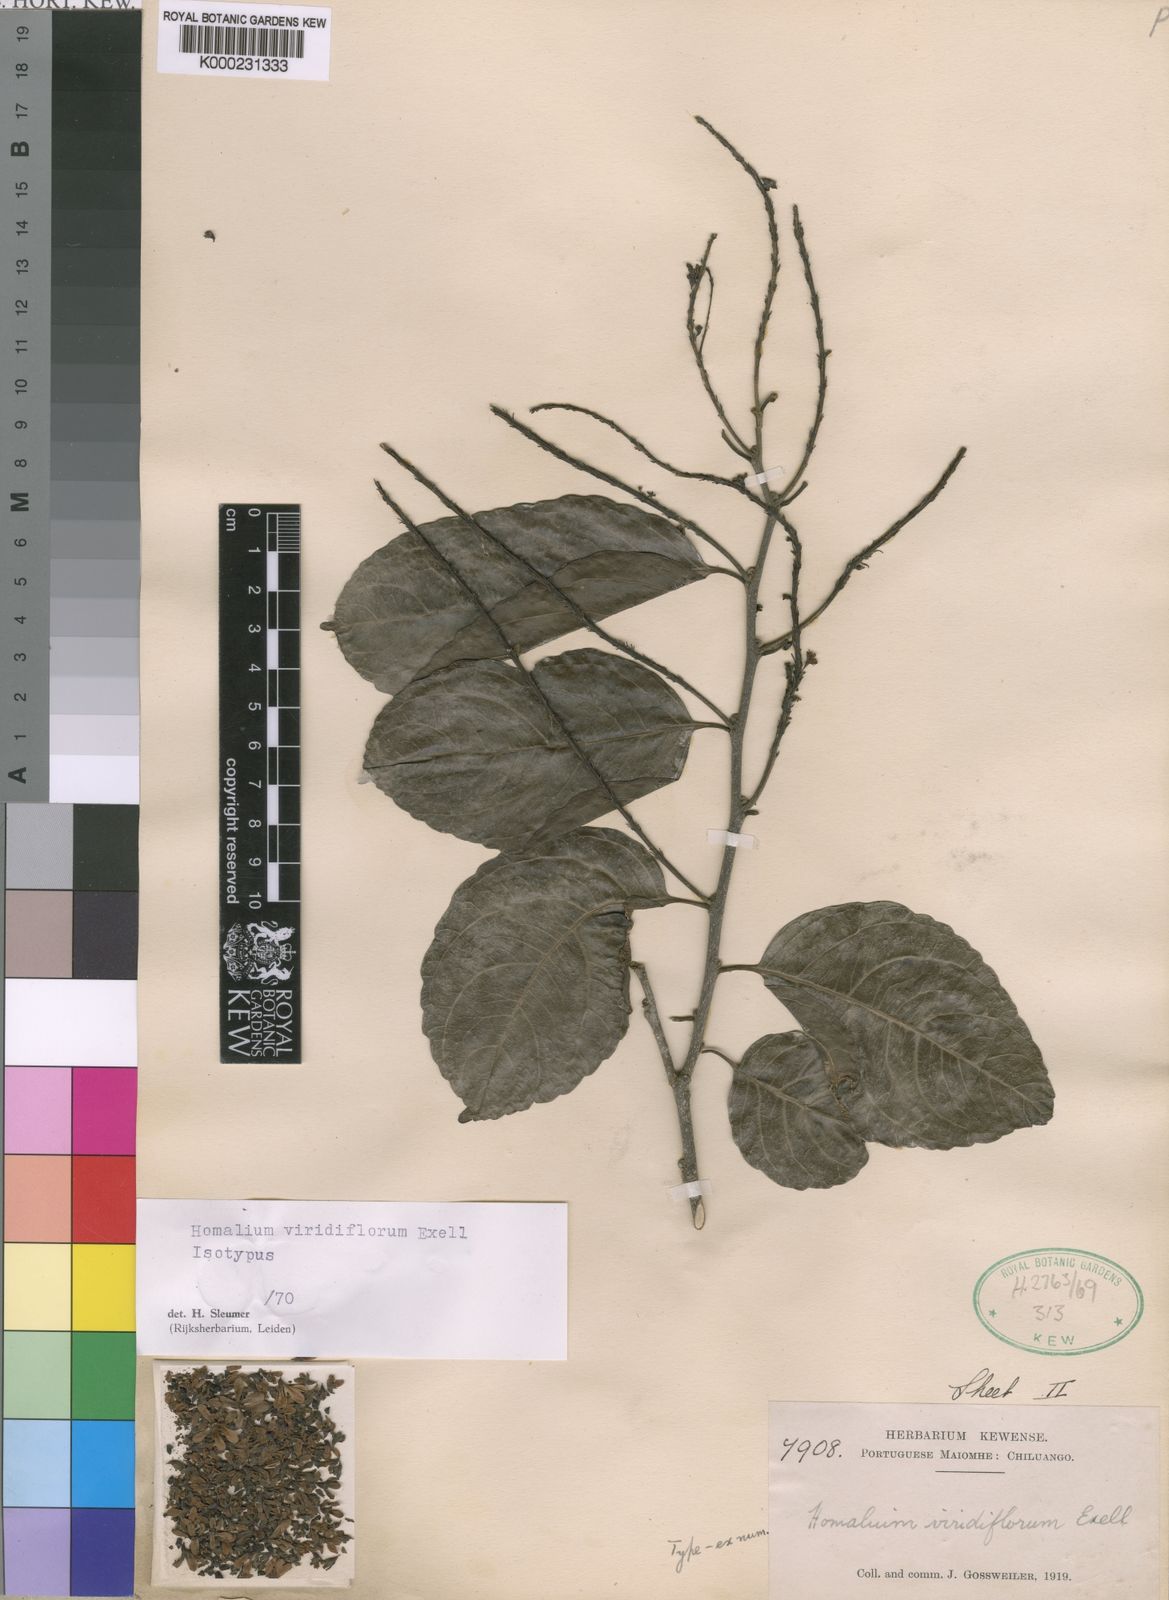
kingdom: Plantae
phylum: Tracheophyta
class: Magnoliopsida
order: Malpighiales
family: Salicaceae
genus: Homalium
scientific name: Homalium
